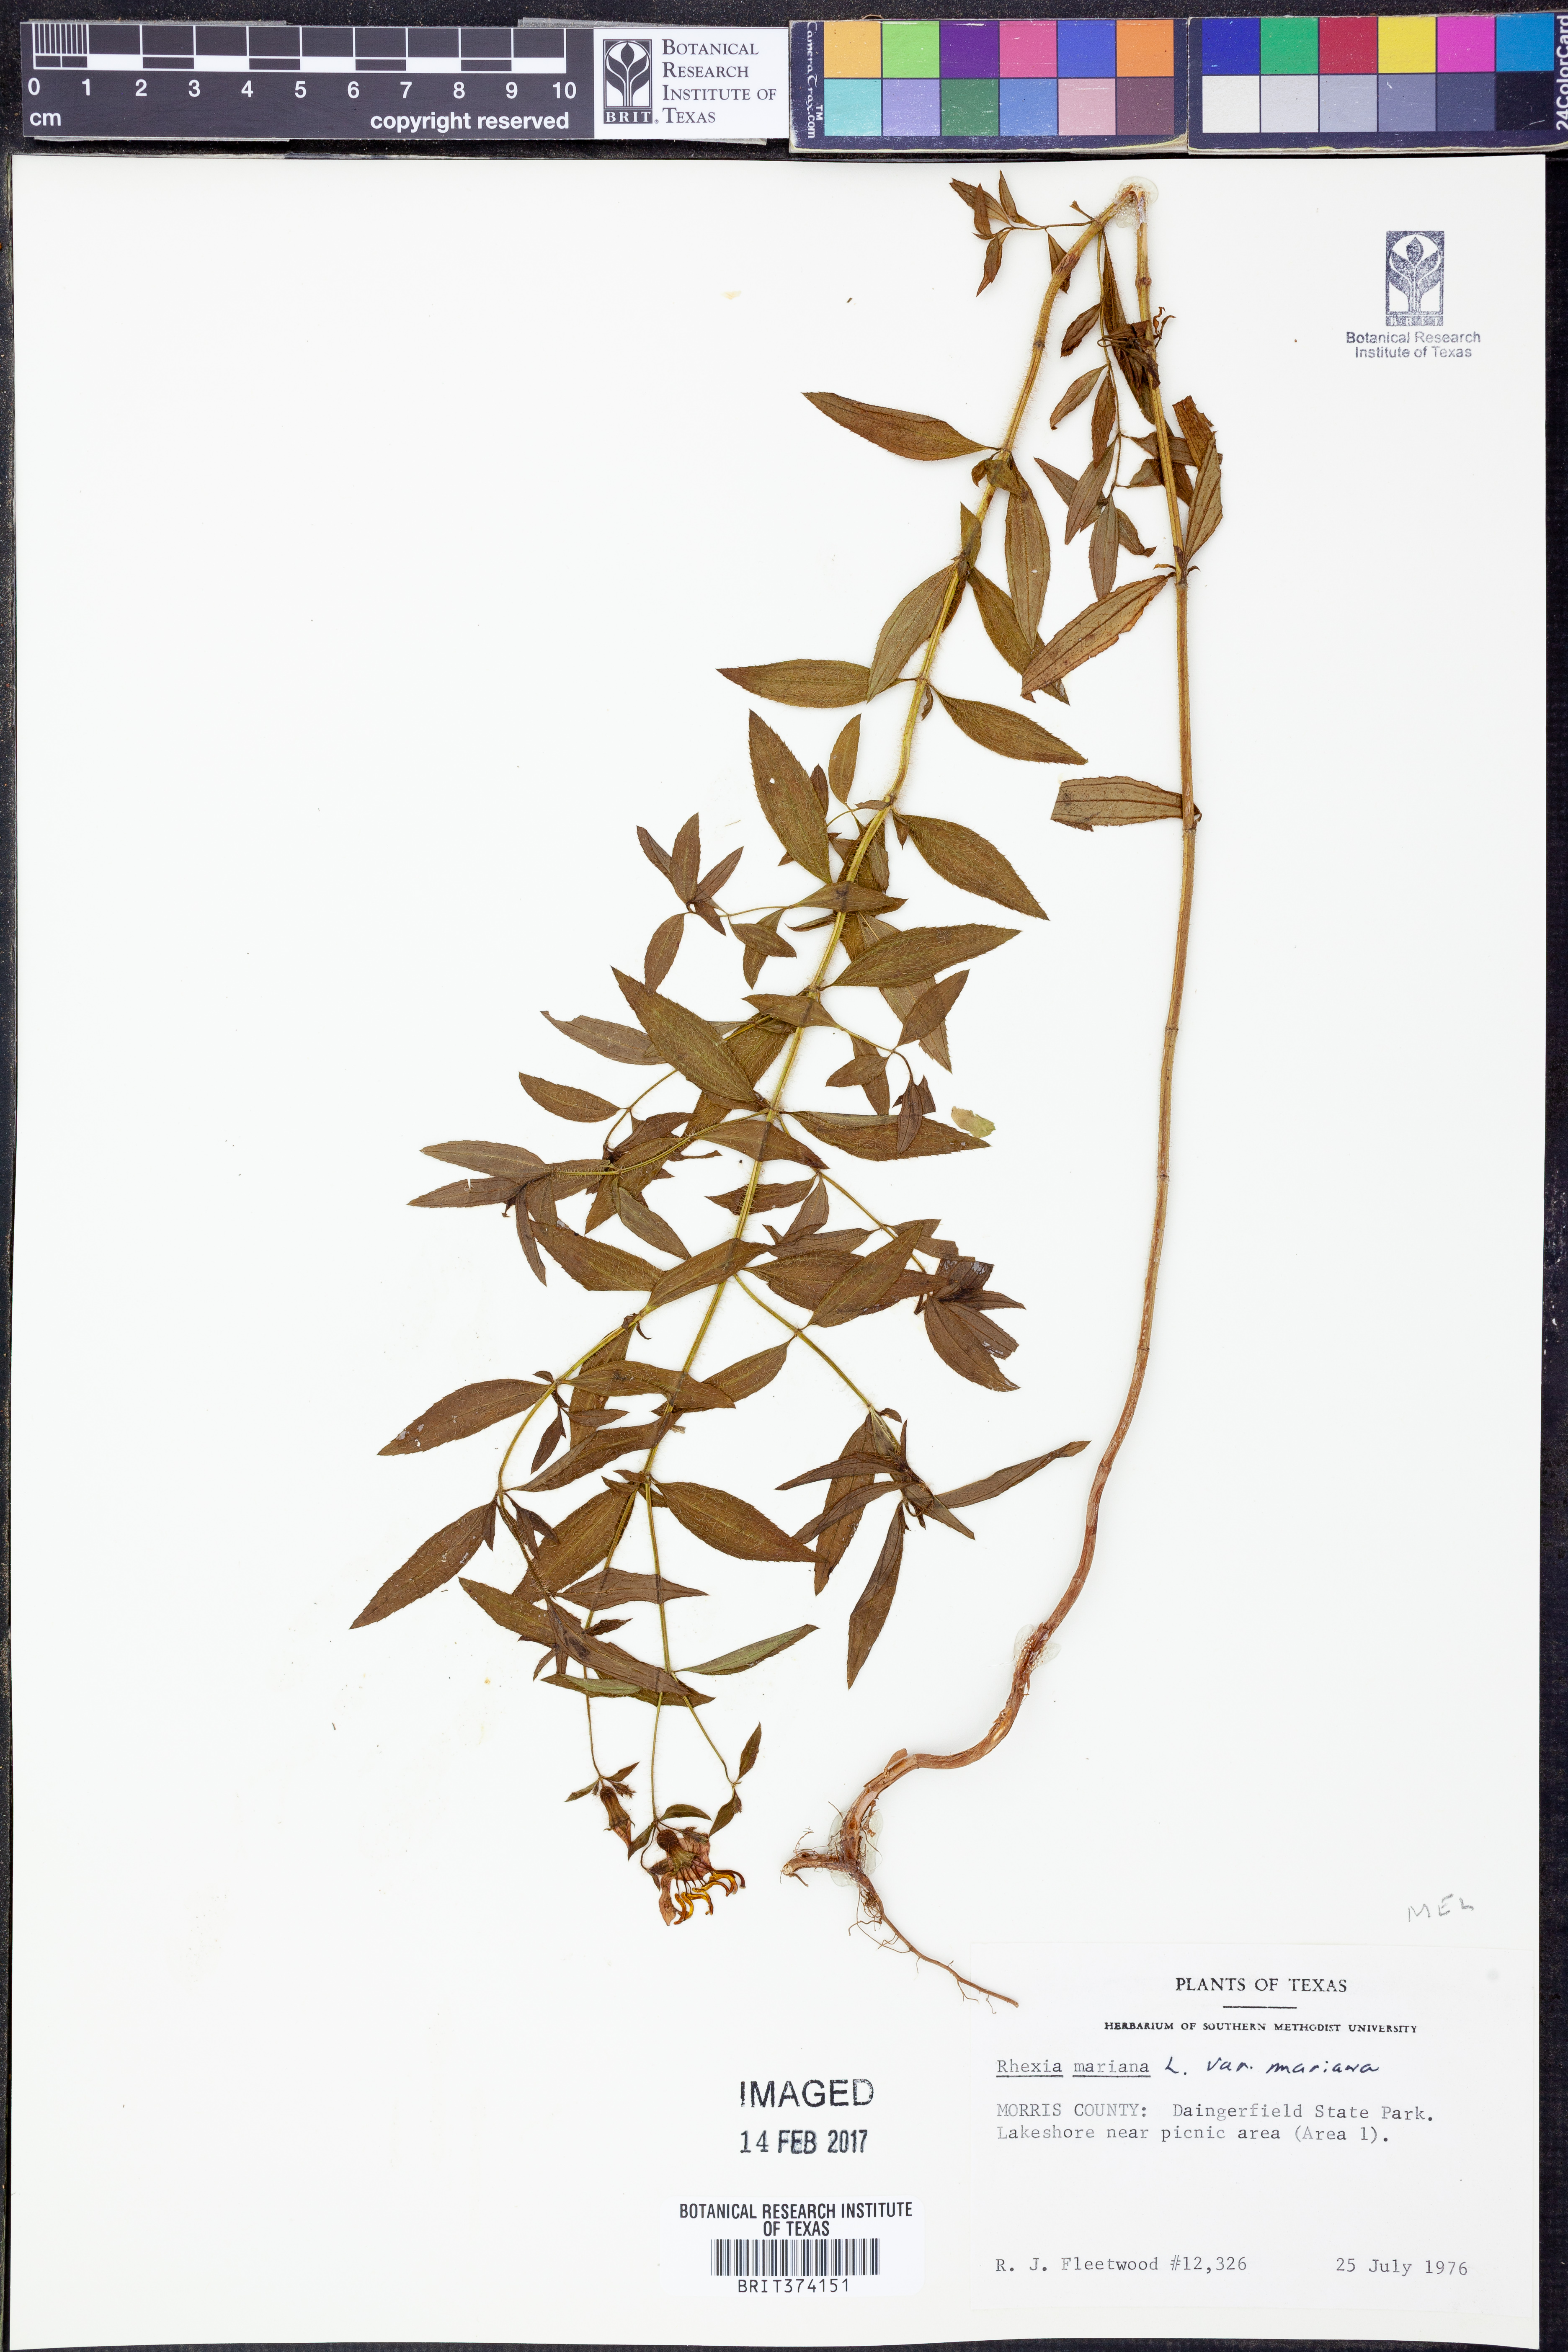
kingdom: Plantae
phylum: Tracheophyta
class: Magnoliopsida
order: Myrtales
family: Melastomataceae
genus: Rhexia
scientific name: Rhexia mariana
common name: Dull meadow-pitcher
